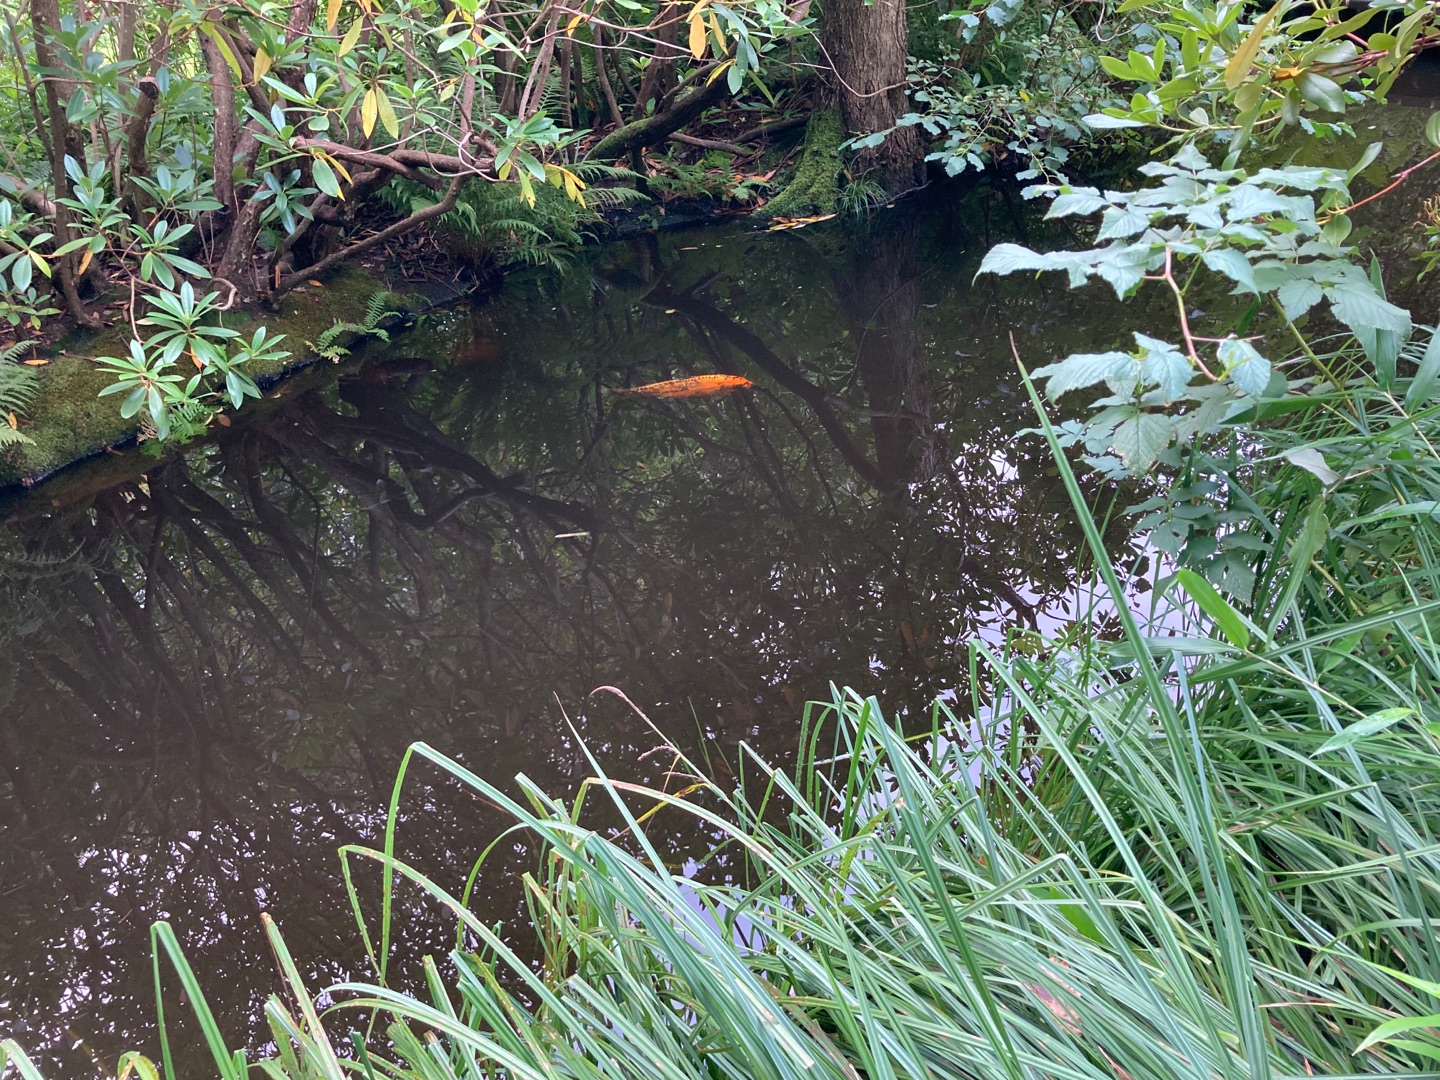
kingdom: Animalia
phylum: Chordata
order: Cypriniformes
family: Cyprinidae
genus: Cyprinus
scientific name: Cyprinus carpio
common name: Karpe
